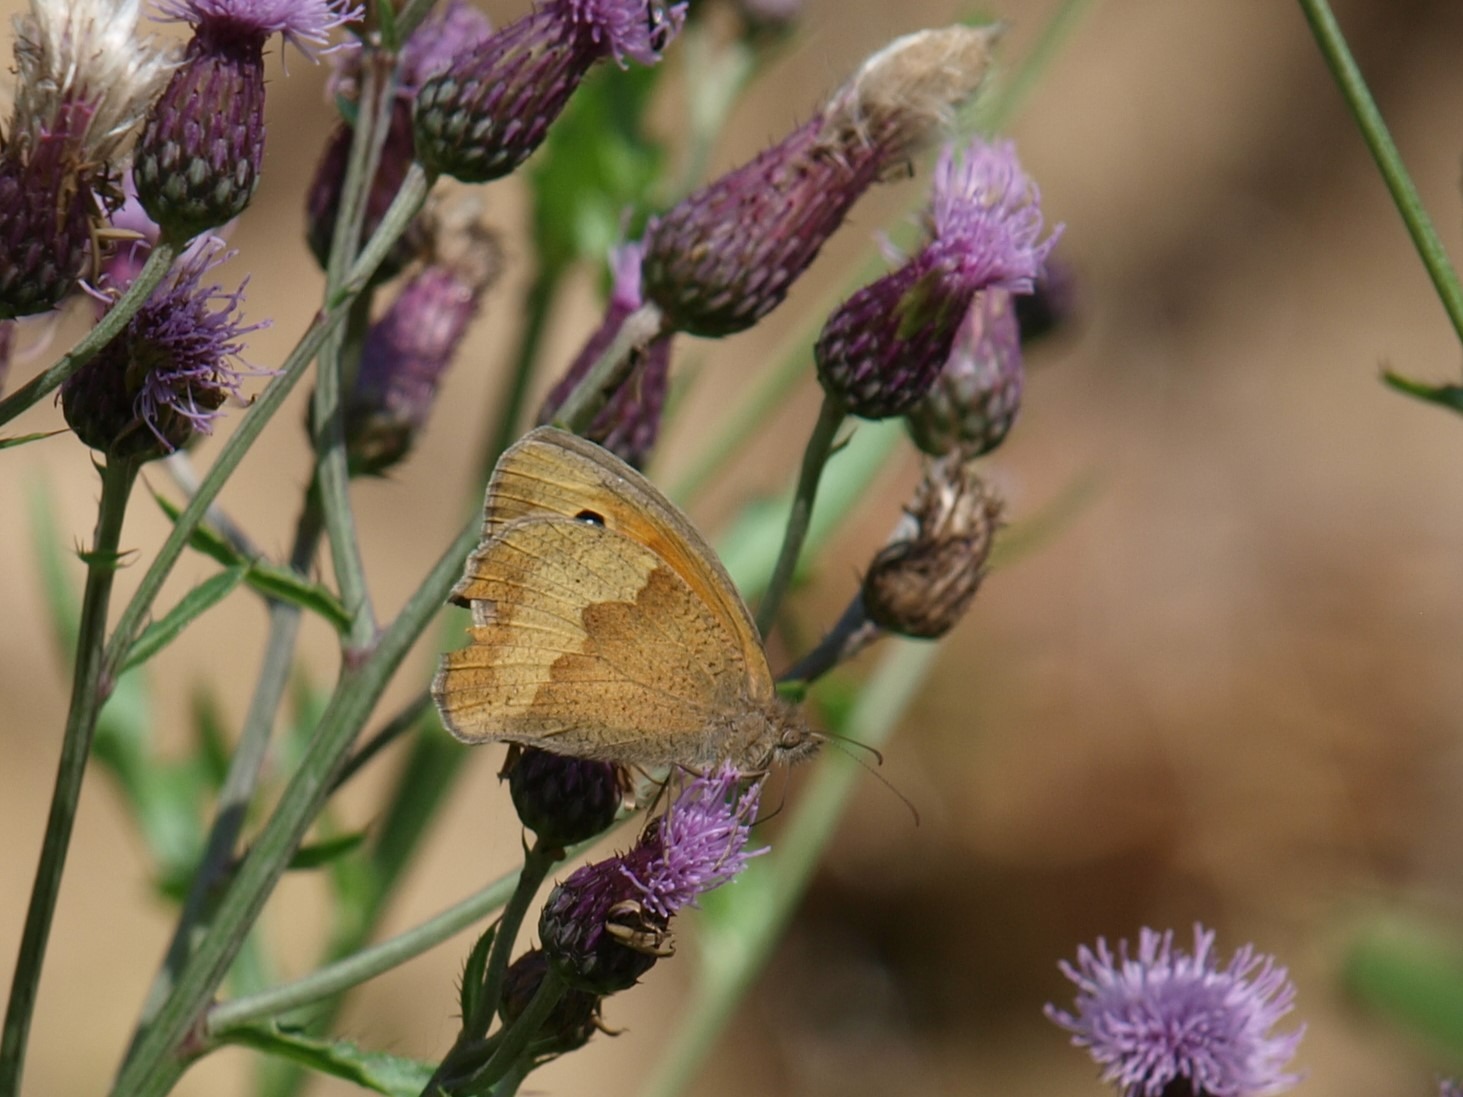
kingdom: Animalia
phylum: Arthropoda
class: Insecta
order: Lepidoptera
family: Nymphalidae
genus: Maniola
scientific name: Maniola jurtina
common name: Græsrandøje
